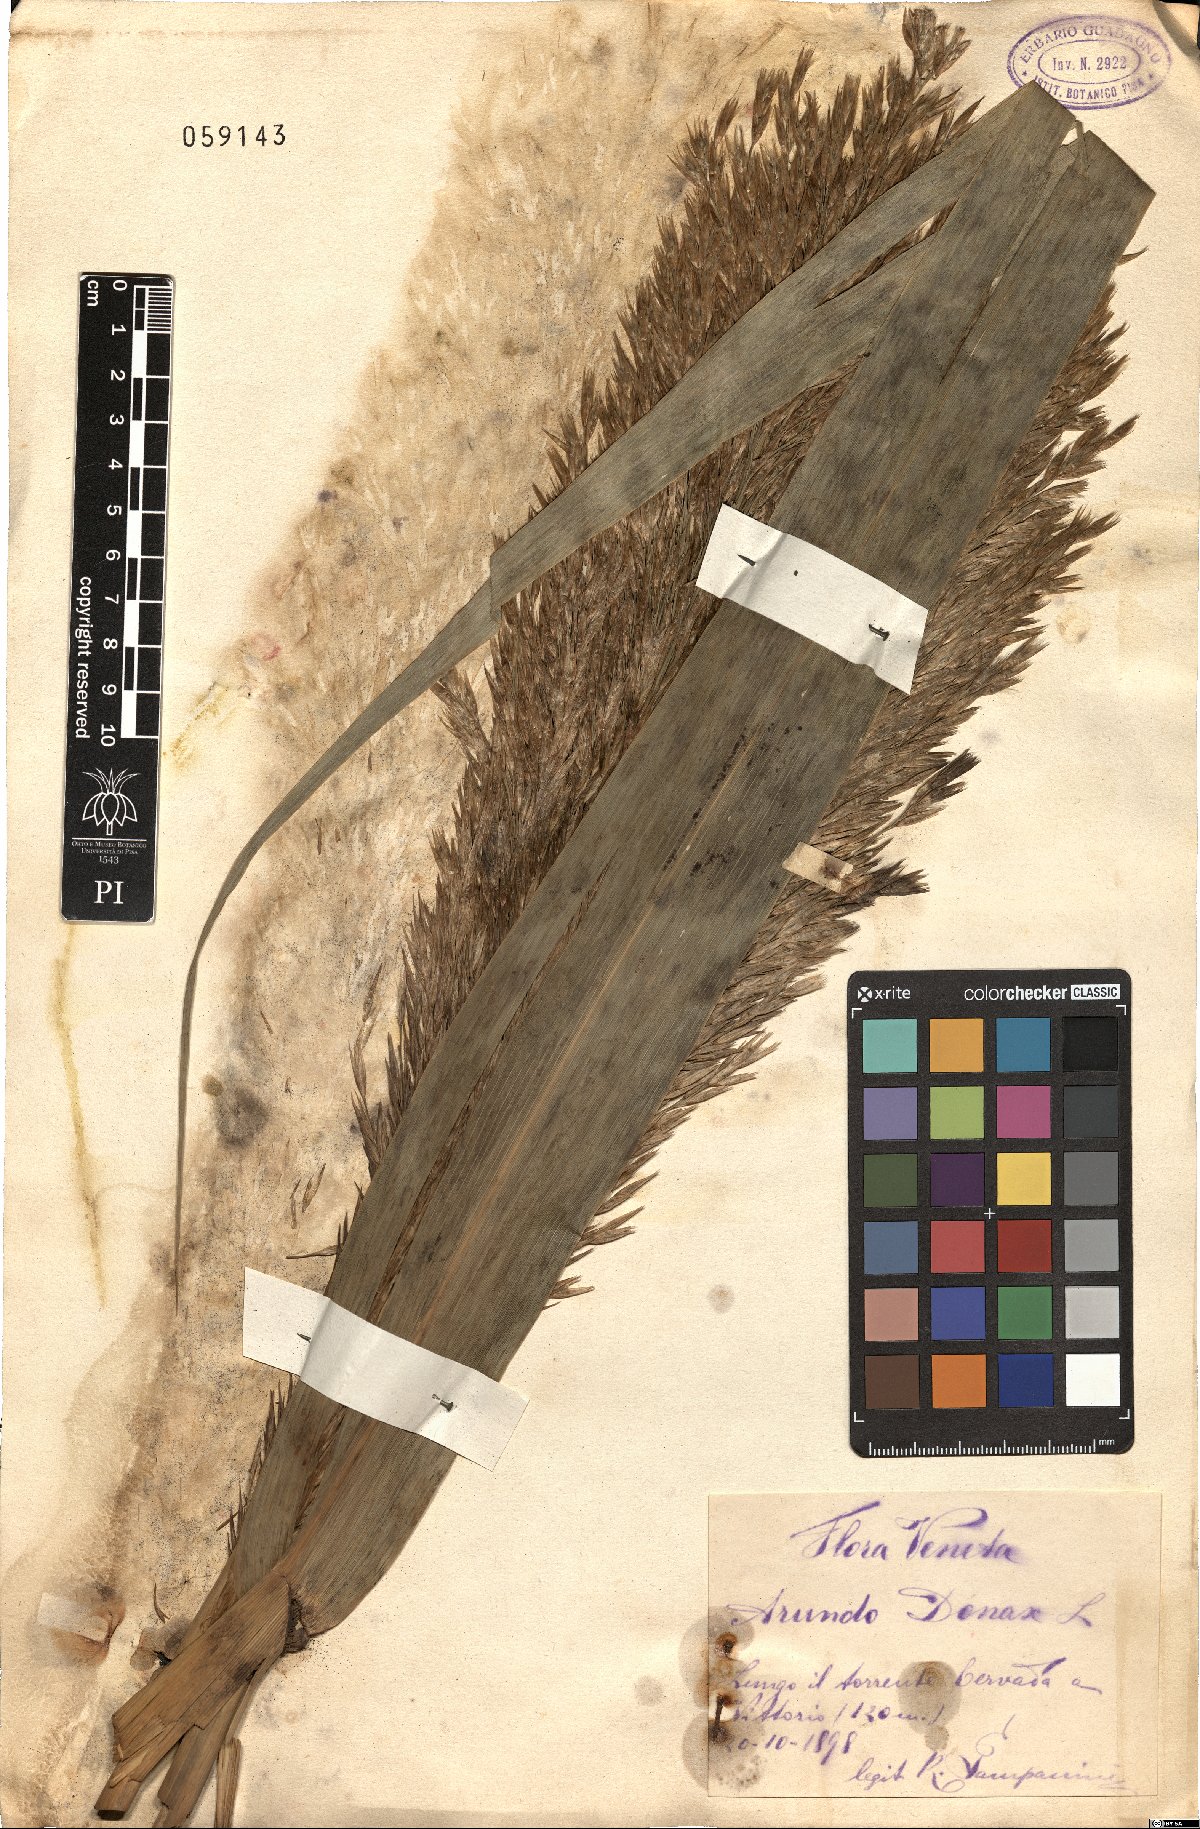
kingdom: Plantae
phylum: Tracheophyta
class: Liliopsida
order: Poales
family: Poaceae
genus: Arundo
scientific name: Arundo donax
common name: Giant reed
